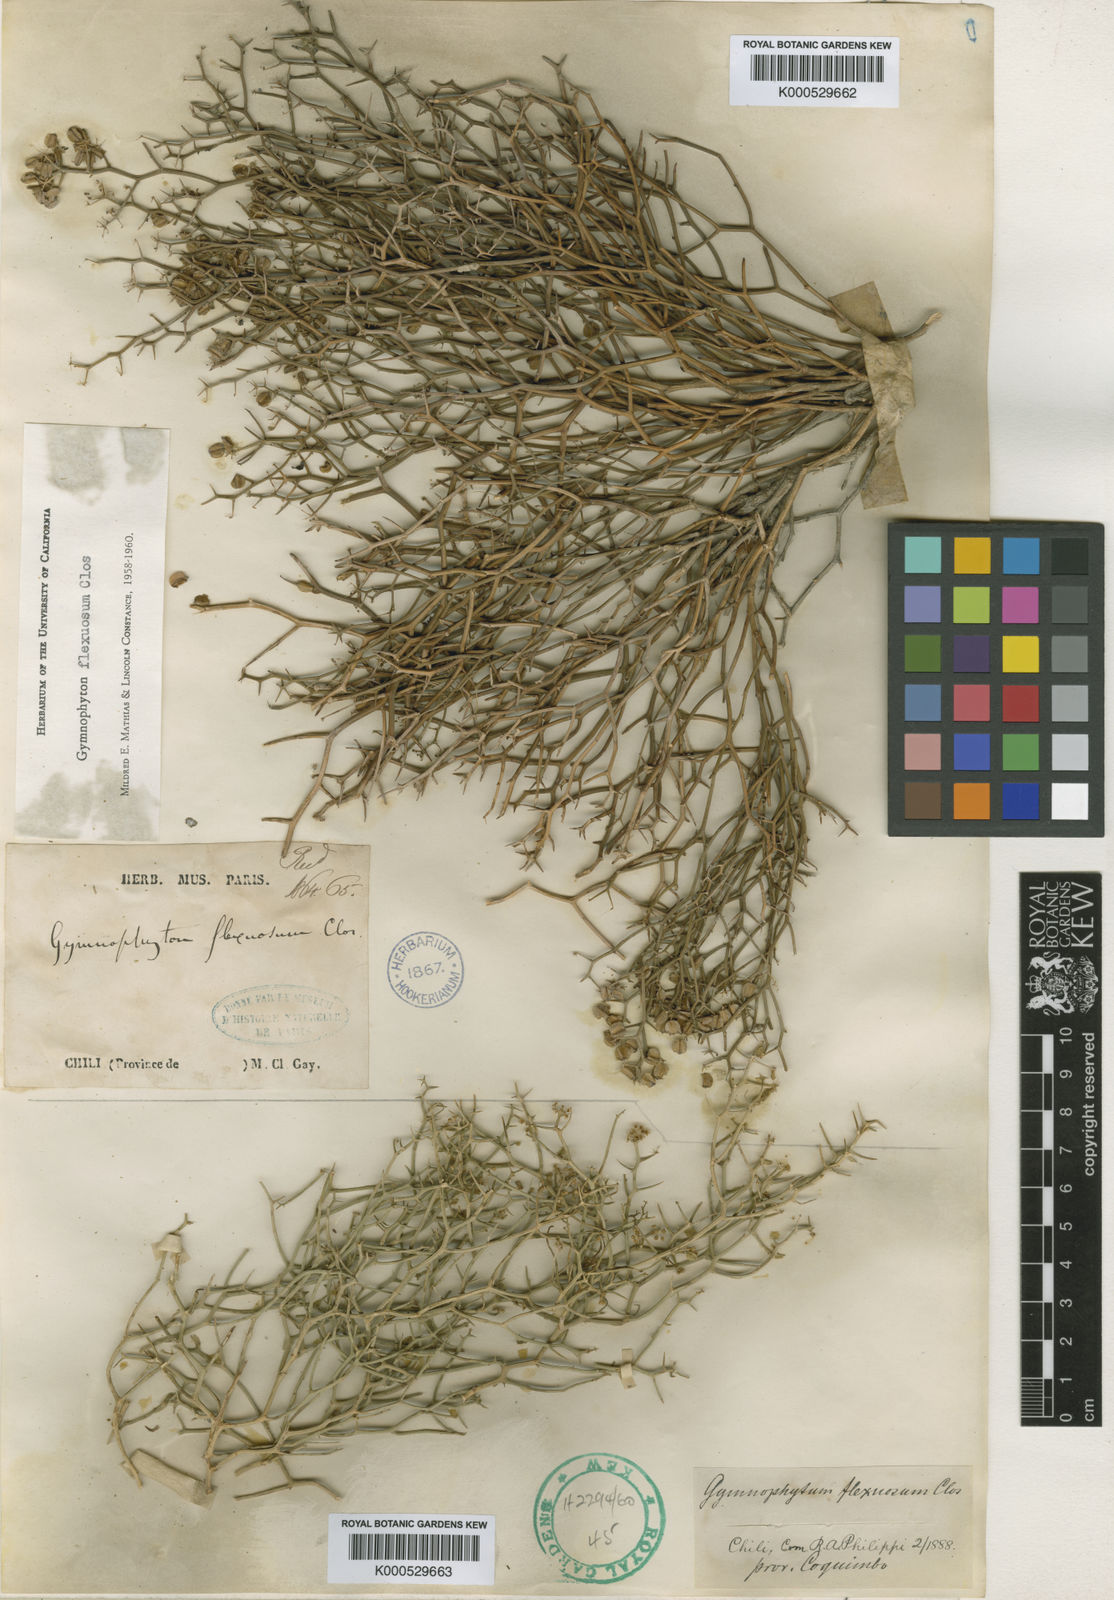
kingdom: Plantae
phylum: Tracheophyta
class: Magnoliopsida
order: Apiales
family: Apiaceae
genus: Gymnophyton
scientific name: Gymnophyton flexuosum
